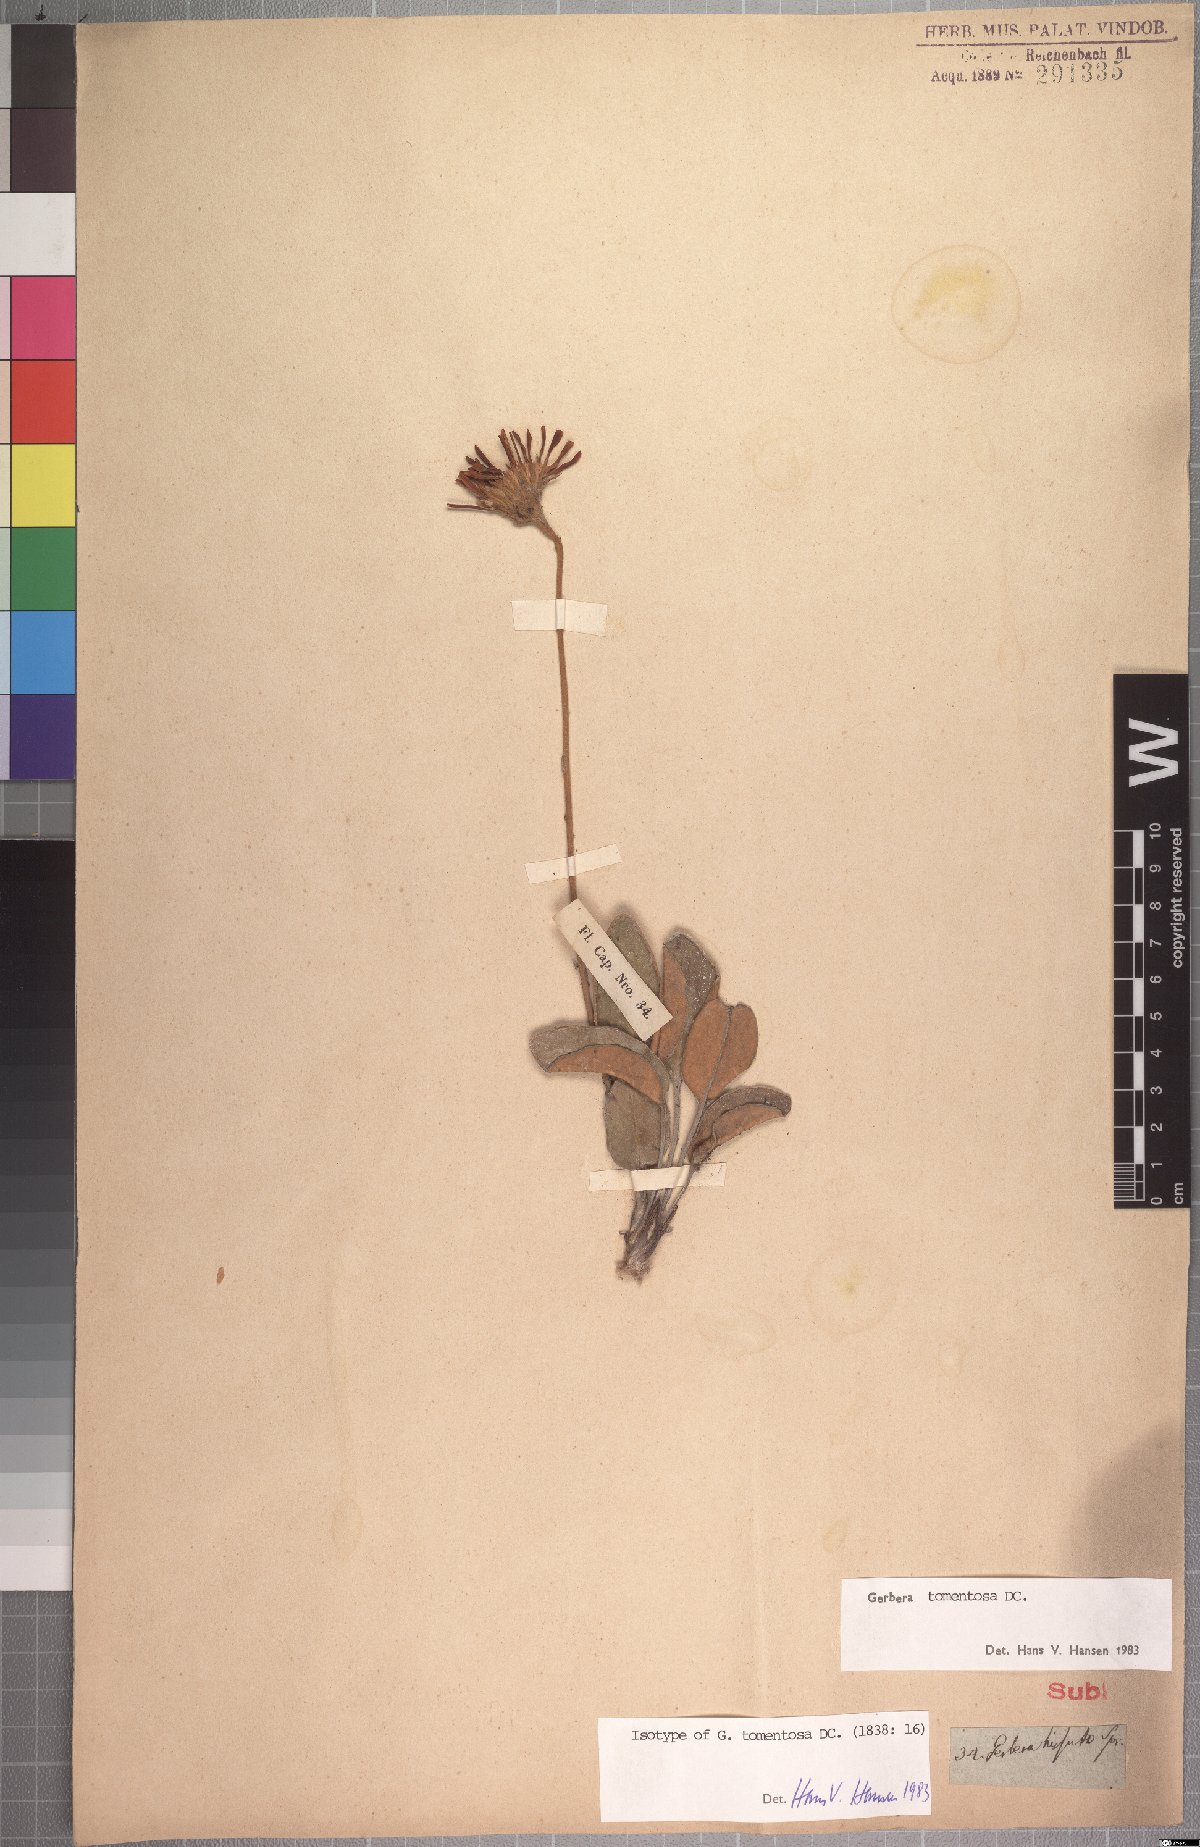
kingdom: Plantae
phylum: Tracheophyta
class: Magnoliopsida
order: Asterales
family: Asteraceae
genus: Gerbera
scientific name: Gerbera tomentosa
